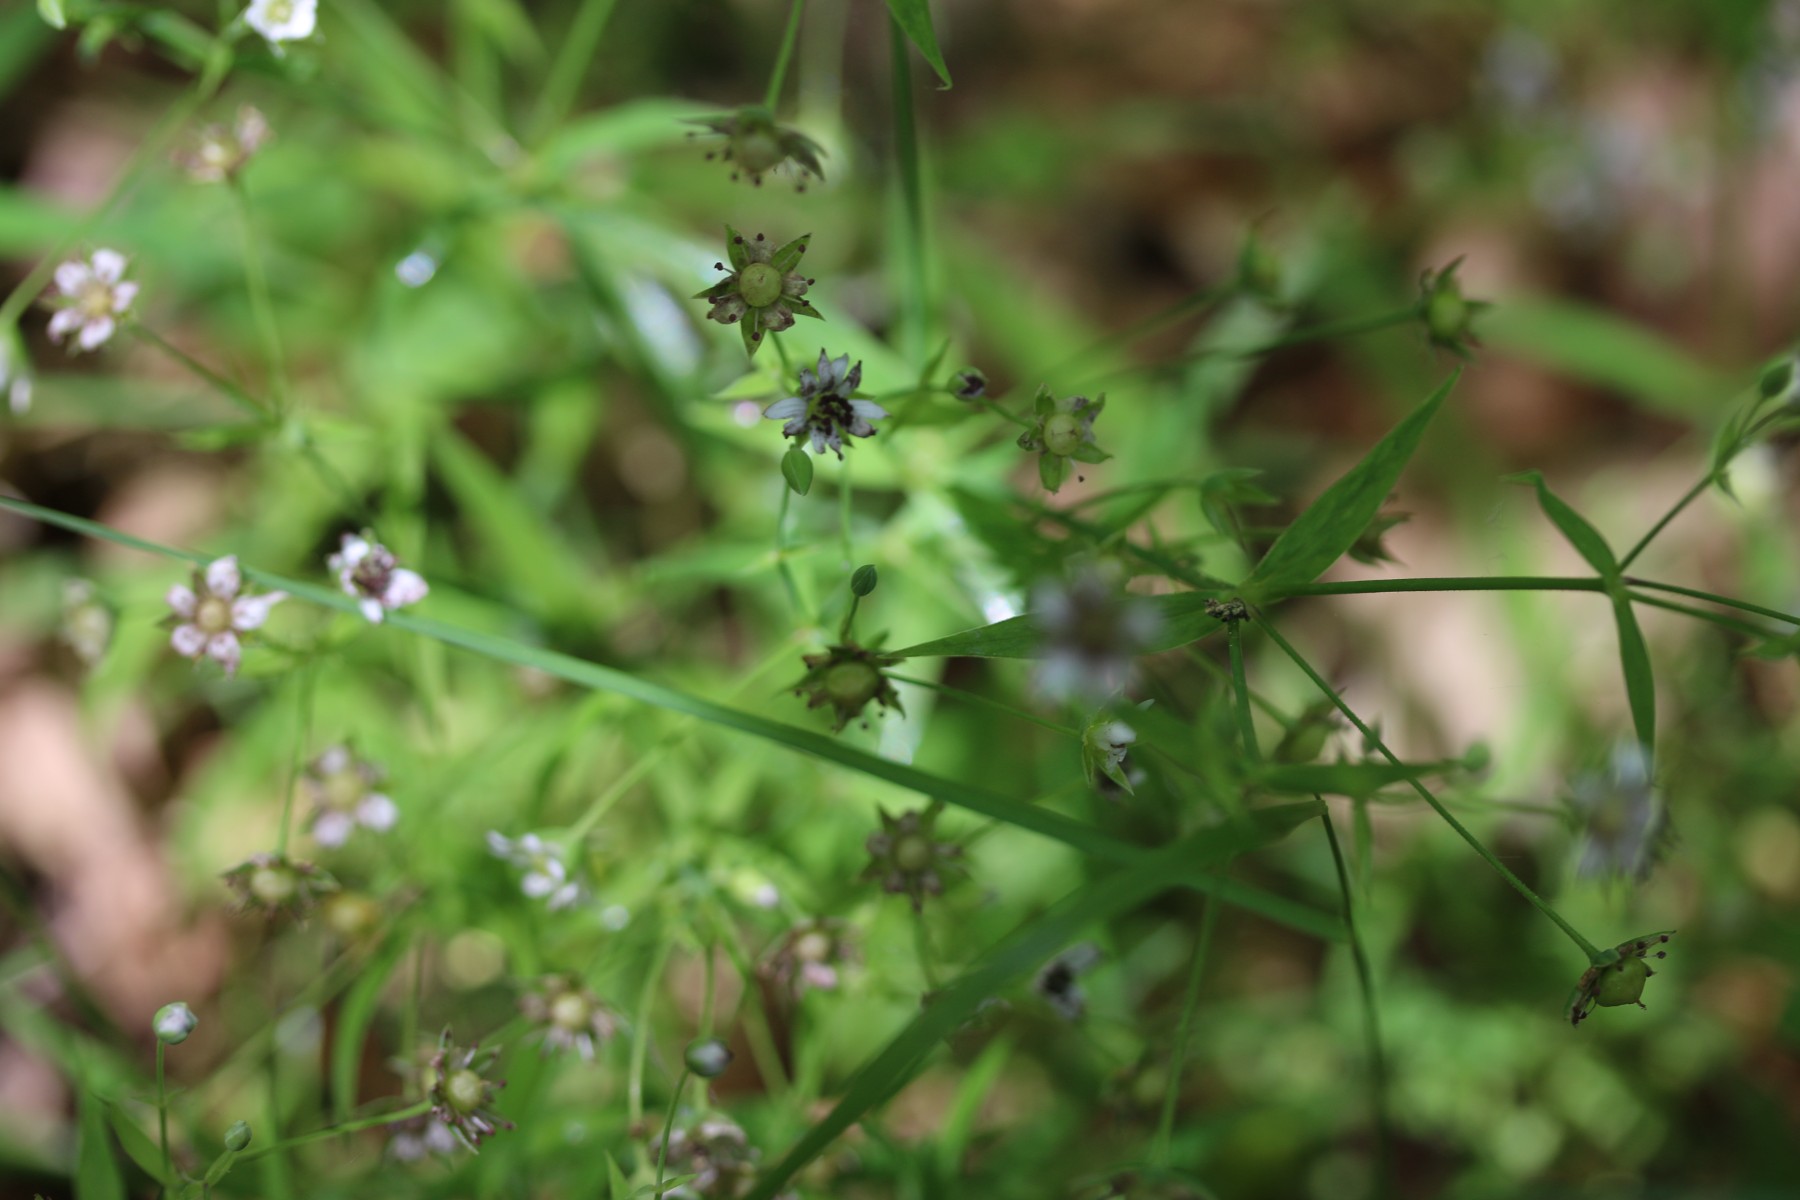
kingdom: Fungi
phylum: Basidiomycota
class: Microbotryomycetes
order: Microbotryales
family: Microbotryaceae
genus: Microbotryum
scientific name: Microbotryum stellariae
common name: fladstjerne-støvbladrust
